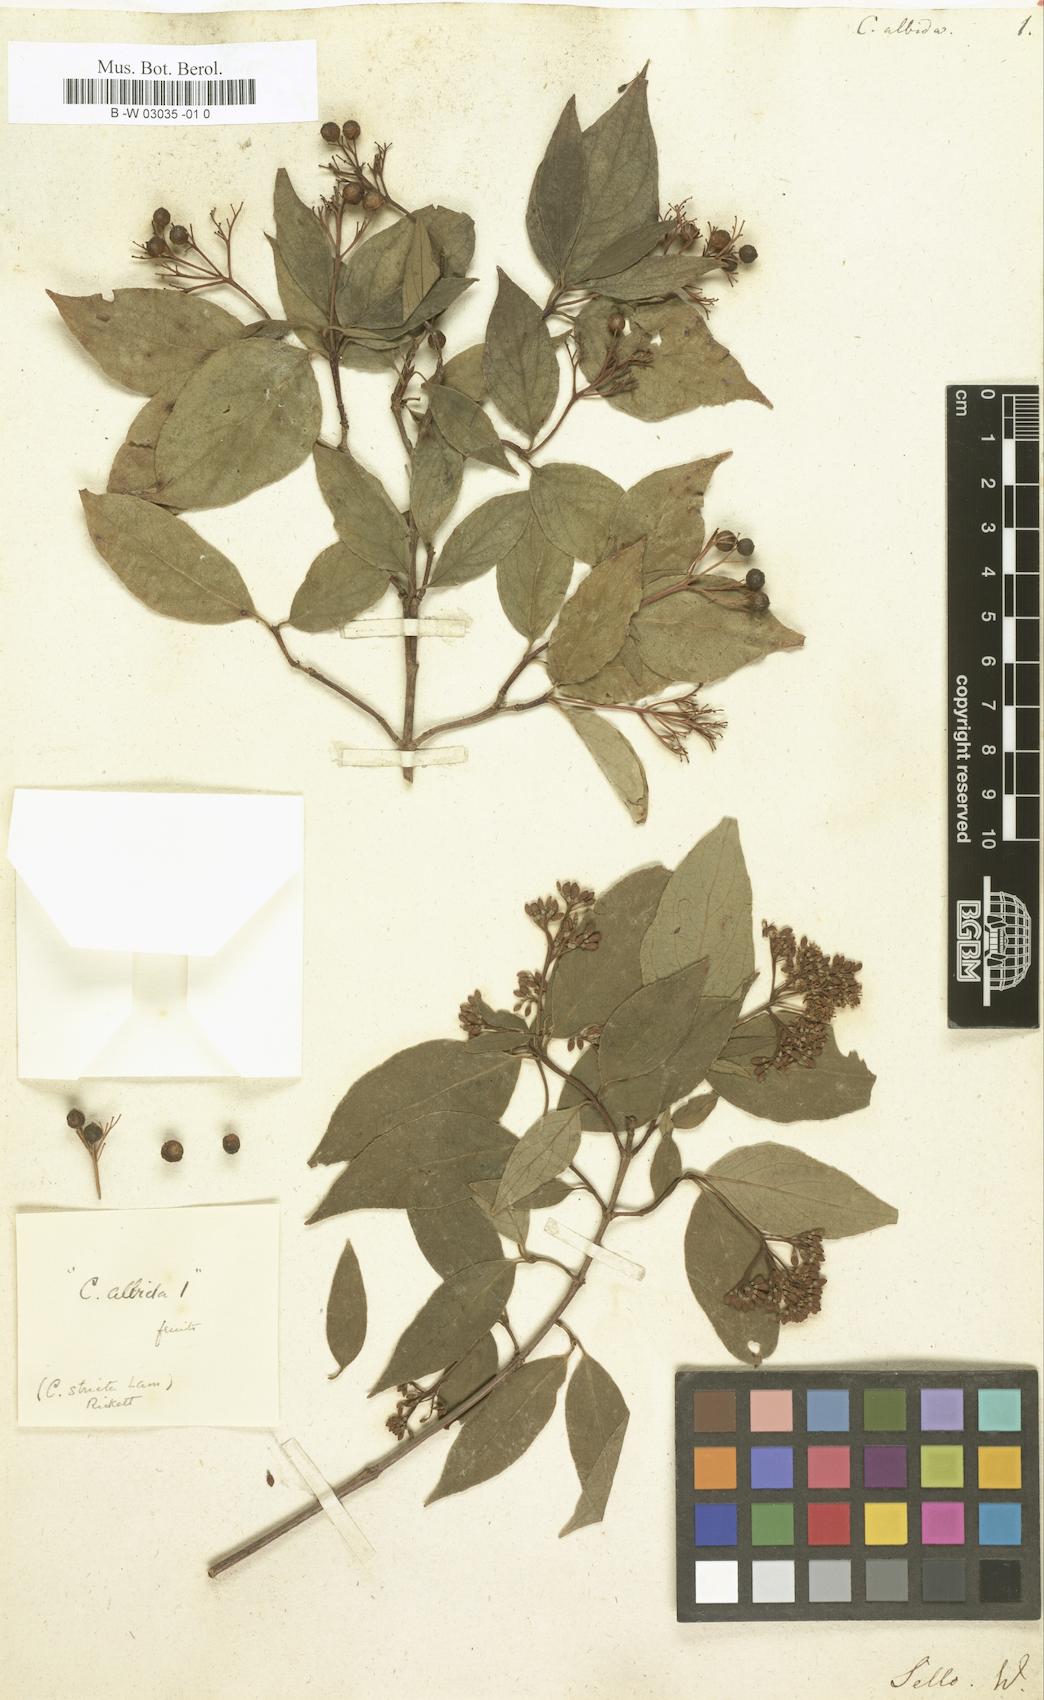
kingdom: Plantae
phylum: Tracheophyta
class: Magnoliopsida
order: Cornales
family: Cornaceae
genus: Cornus
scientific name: Cornus racemosa
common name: Panicled dogwood
